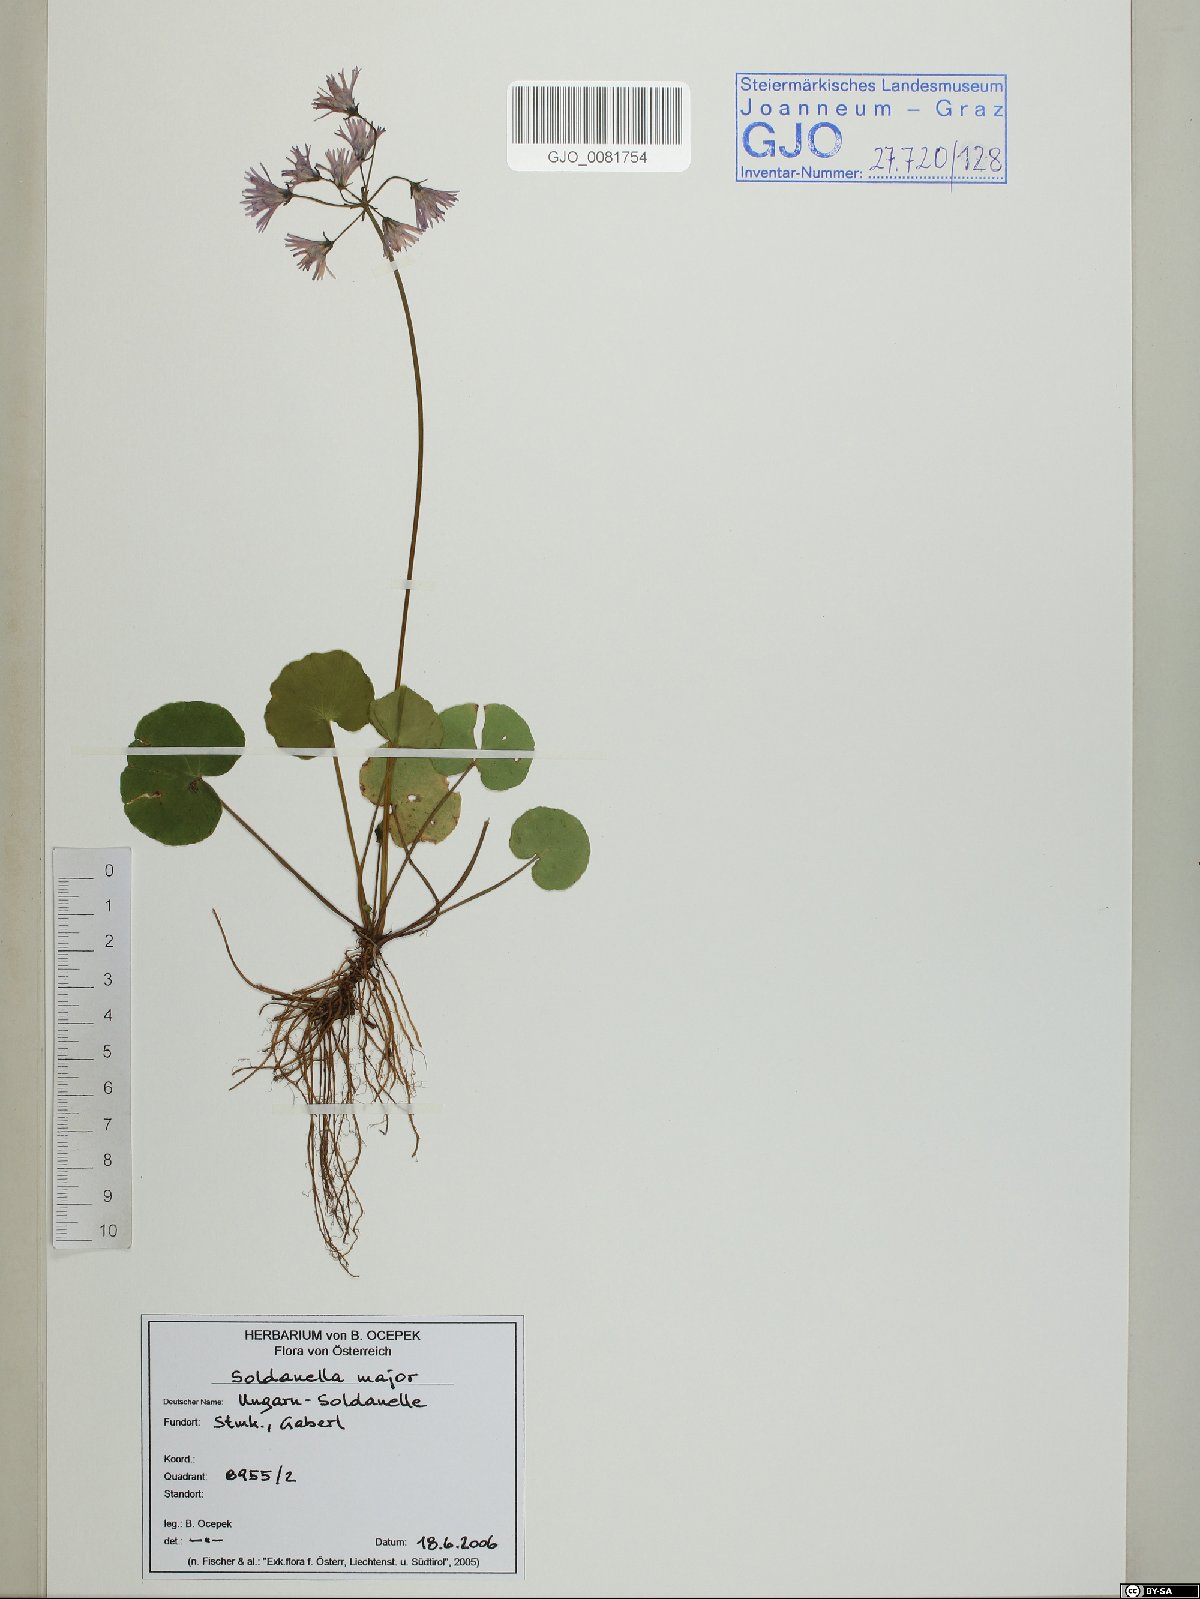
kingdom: Plantae
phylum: Tracheophyta
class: Magnoliopsida
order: Ericales
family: Primulaceae
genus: Soldanella
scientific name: Soldanella major
